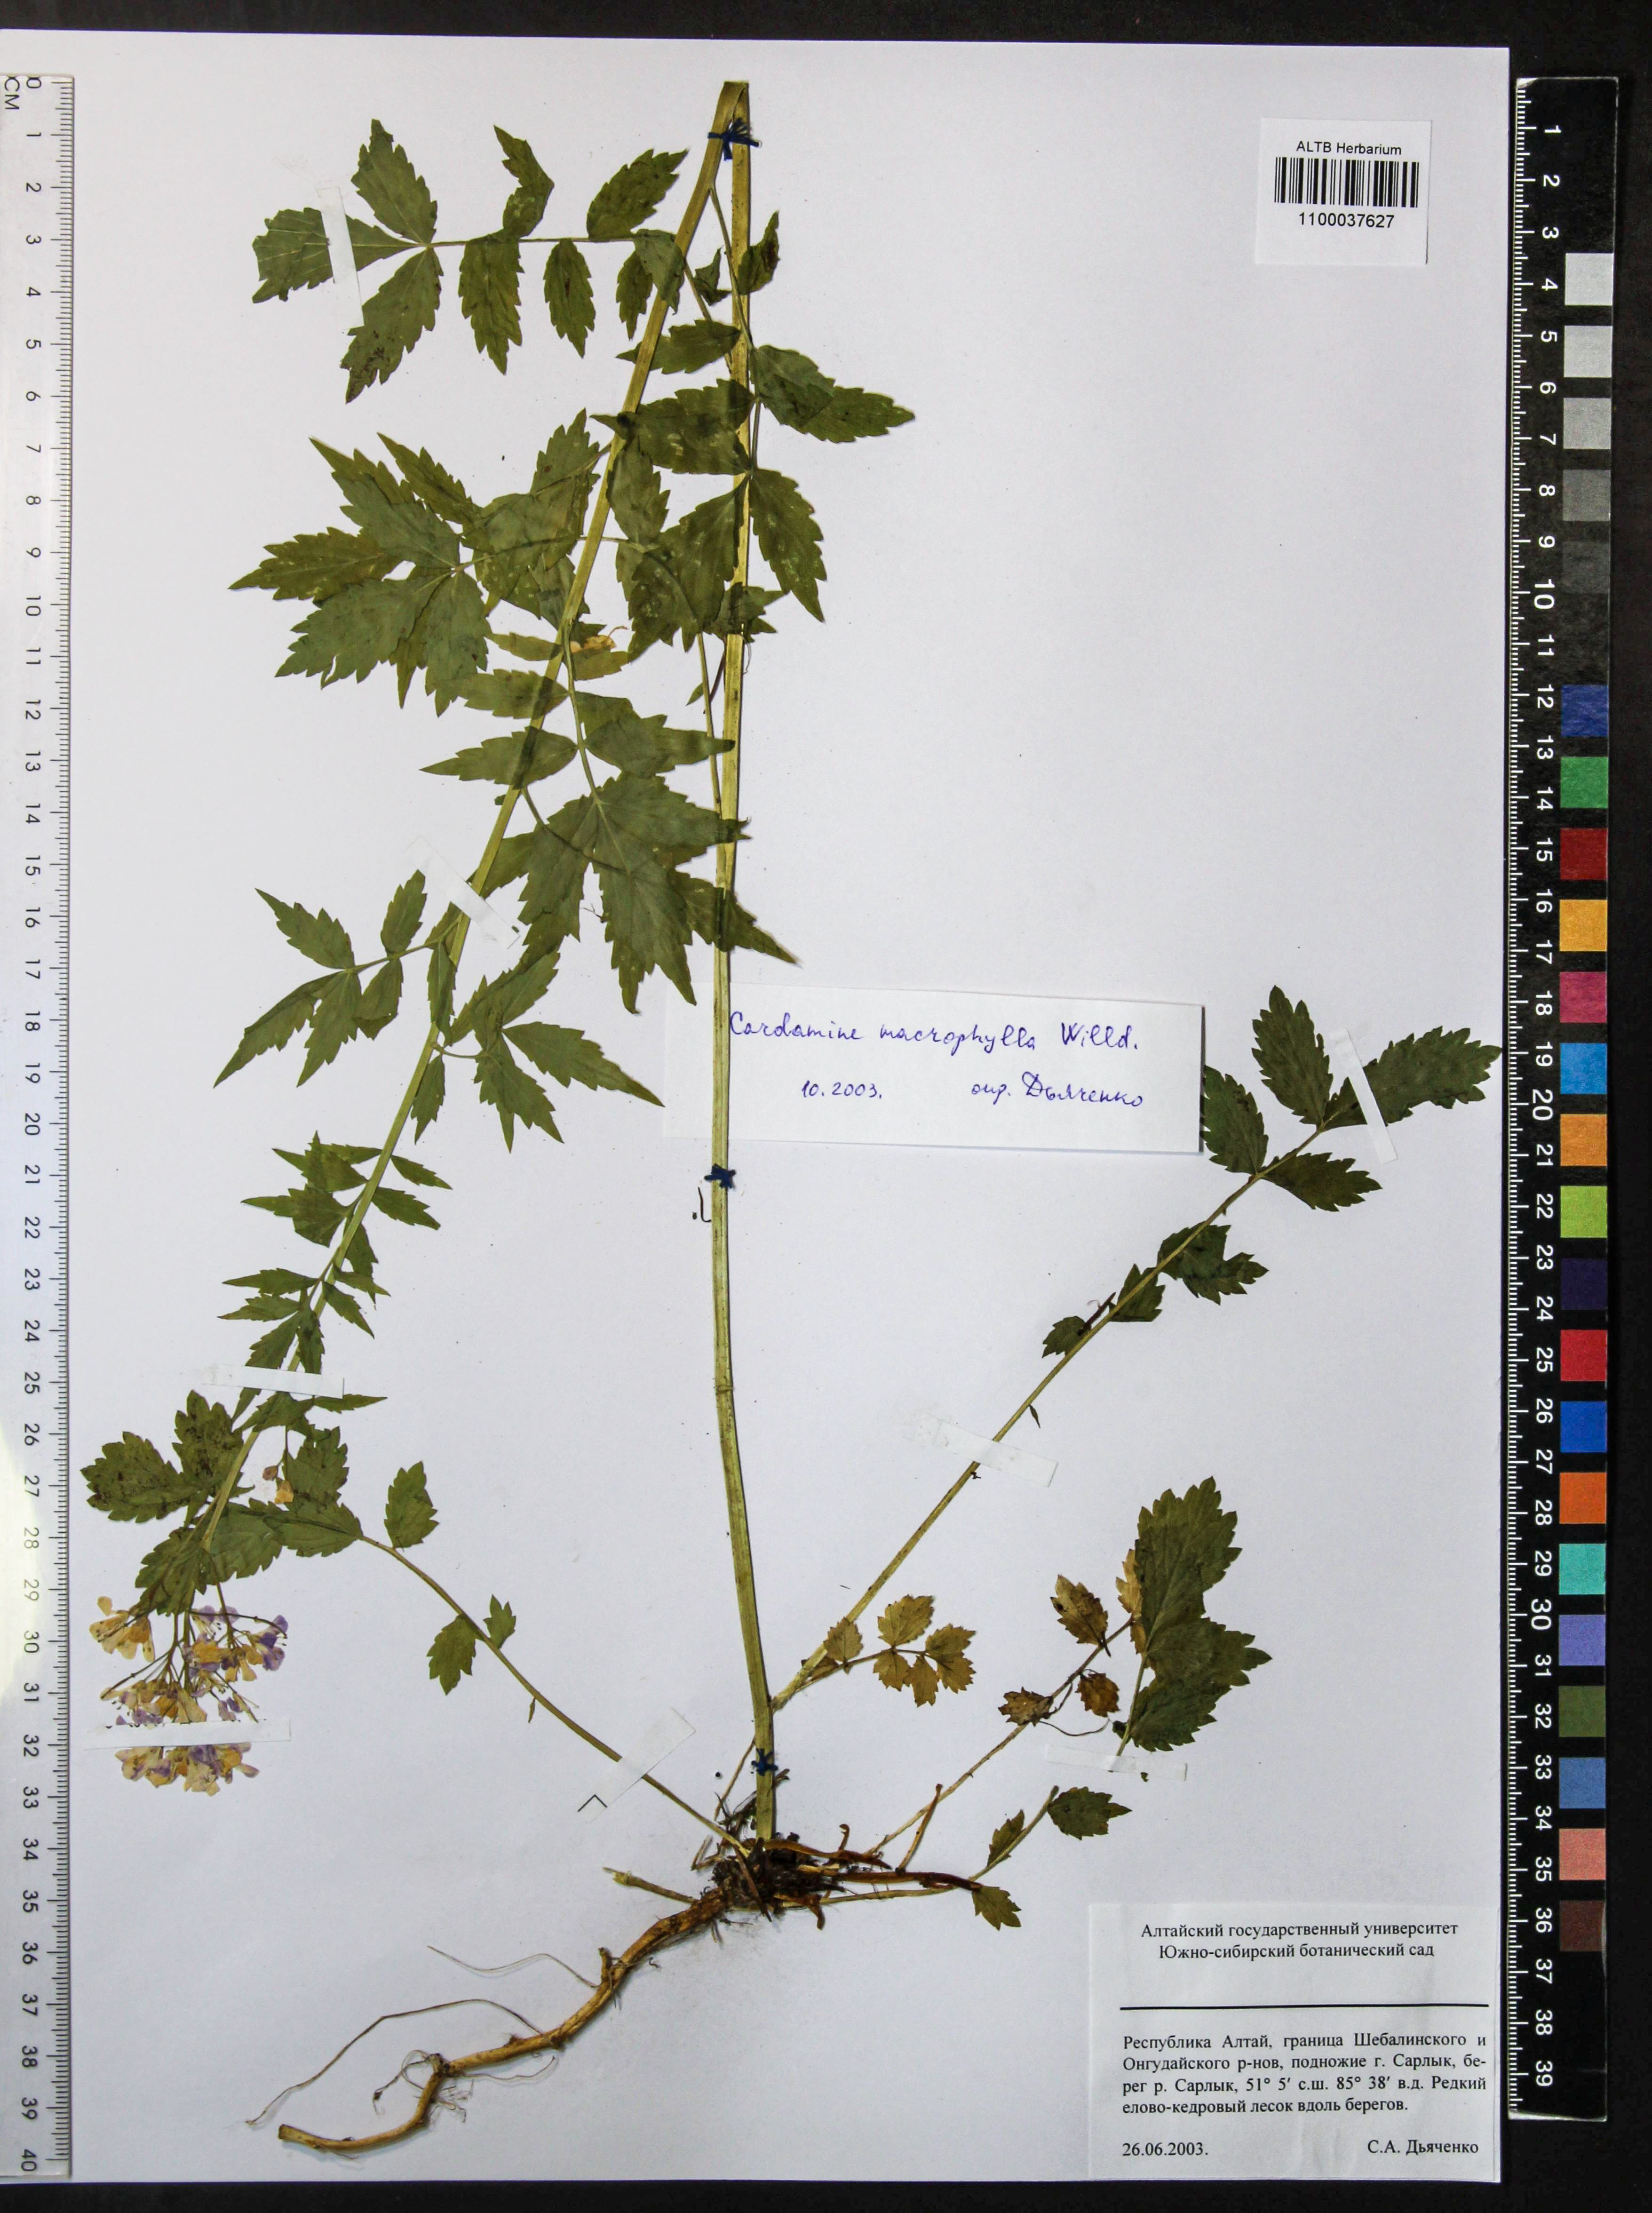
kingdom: Plantae
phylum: Tracheophyta
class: Magnoliopsida
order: Brassicales
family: Brassicaceae
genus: Cardamine
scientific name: Cardamine macrophylla
